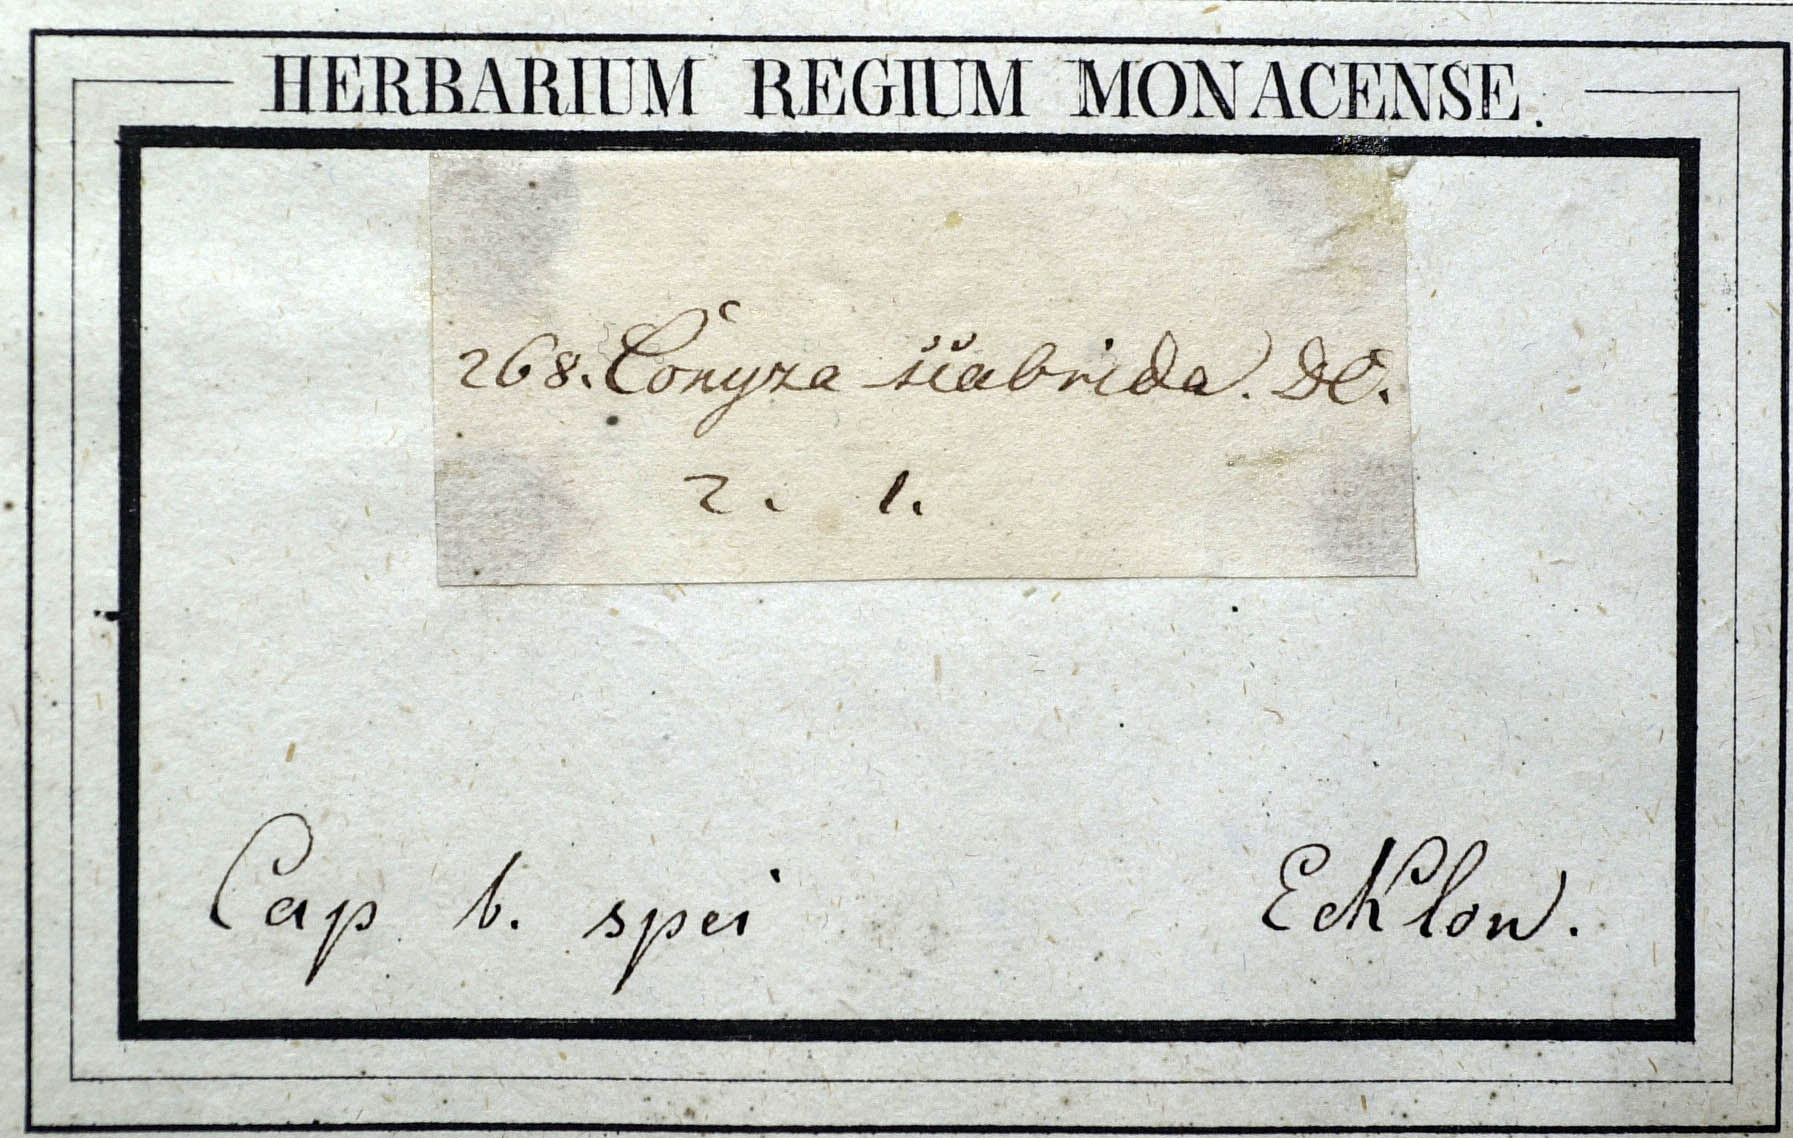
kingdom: Plantae
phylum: Tracheophyta
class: Magnoliopsida
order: Asterales
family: Asteraceae
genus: Nidorella
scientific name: Nidorella ivifolia
